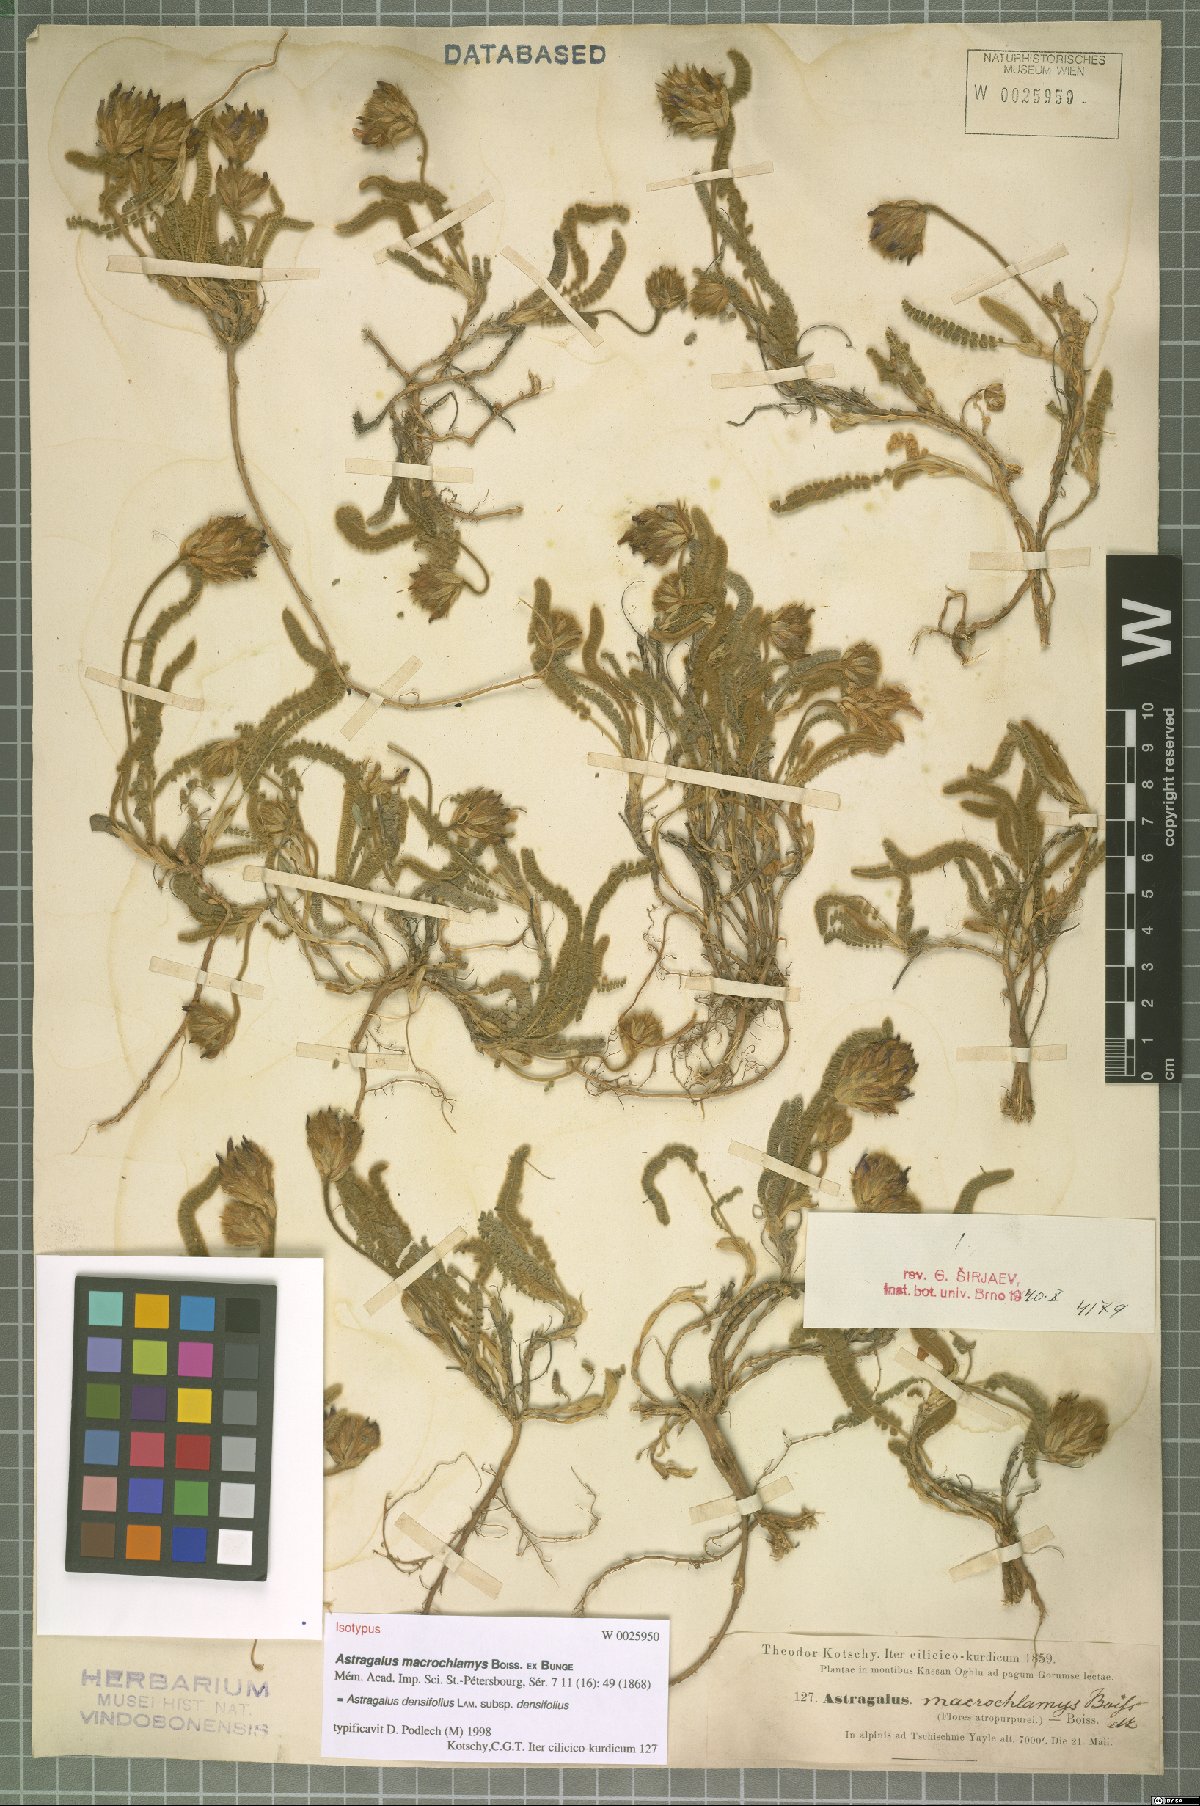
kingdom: Plantae
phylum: Tracheophyta
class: Magnoliopsida
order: Fabales
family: Fabaceae
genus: Astragalus
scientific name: Astragalus densifolius
